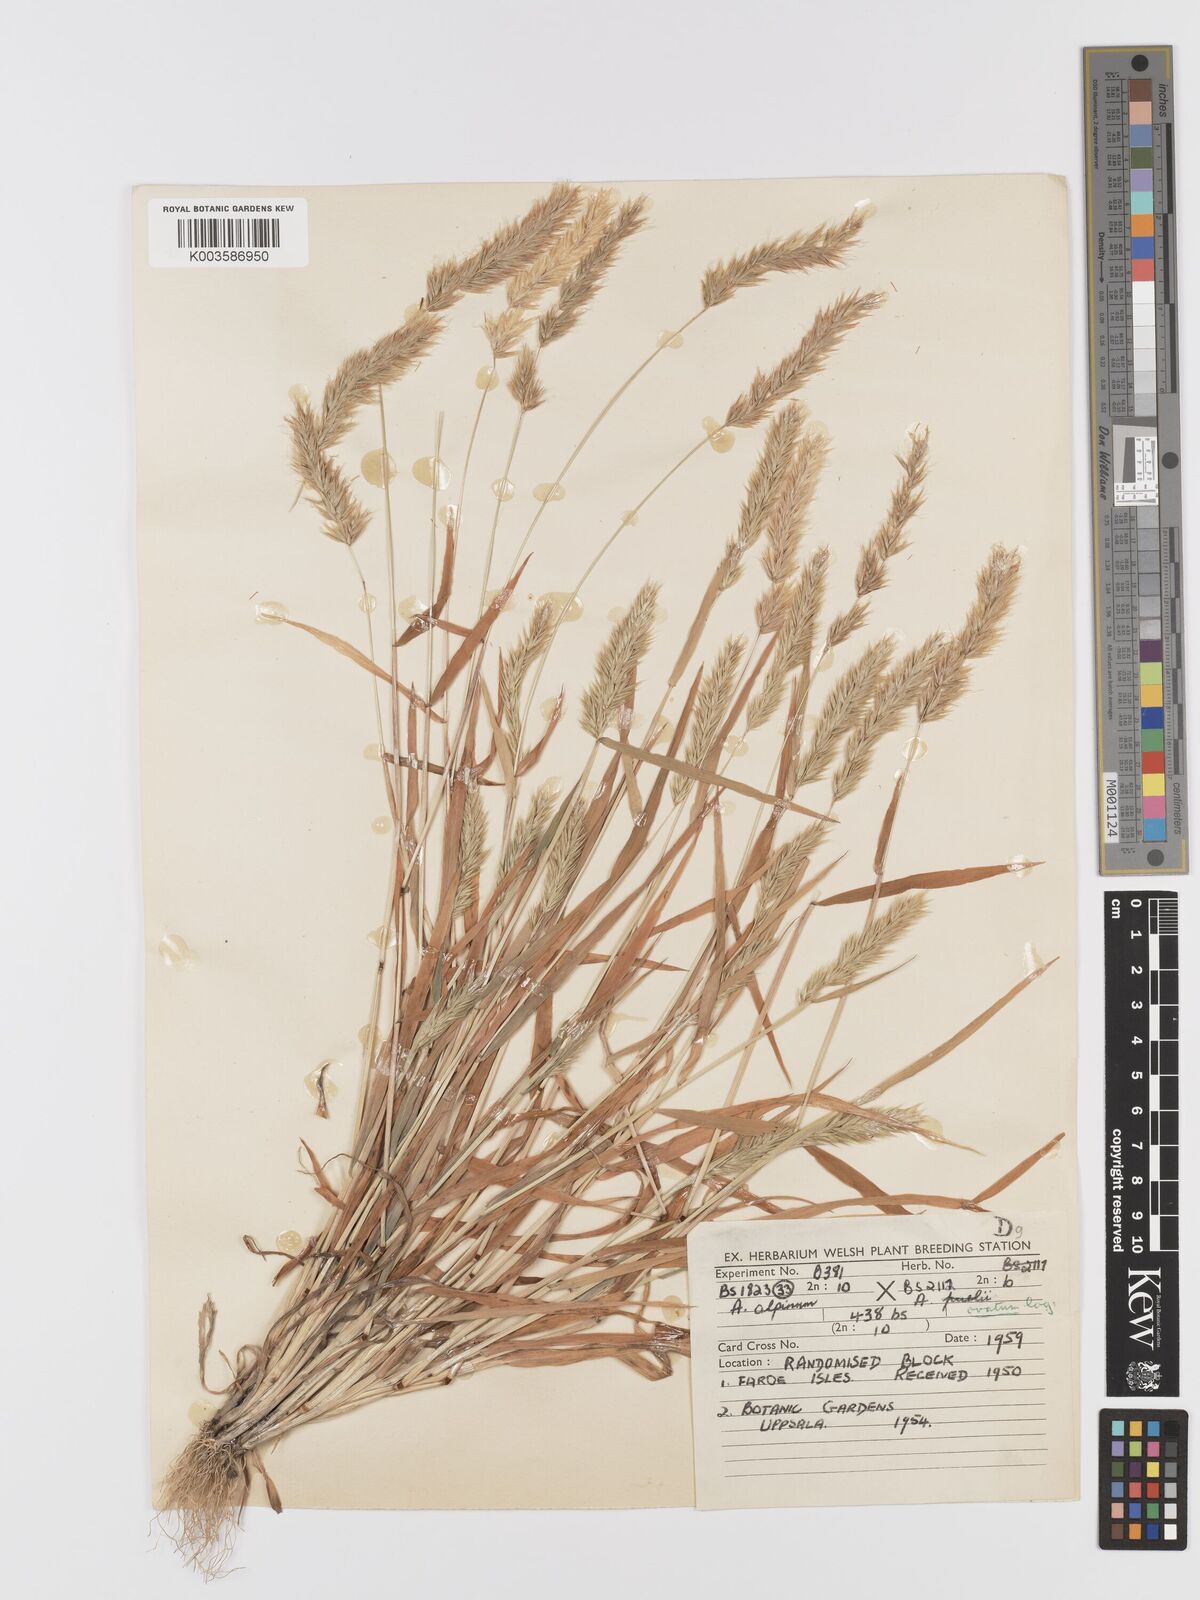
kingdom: Plantae
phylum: Tracheophyta
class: Liliopsida
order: Poales
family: Poaceae
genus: Anthoxanthum
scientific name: Anthoxanthum nipponicum
